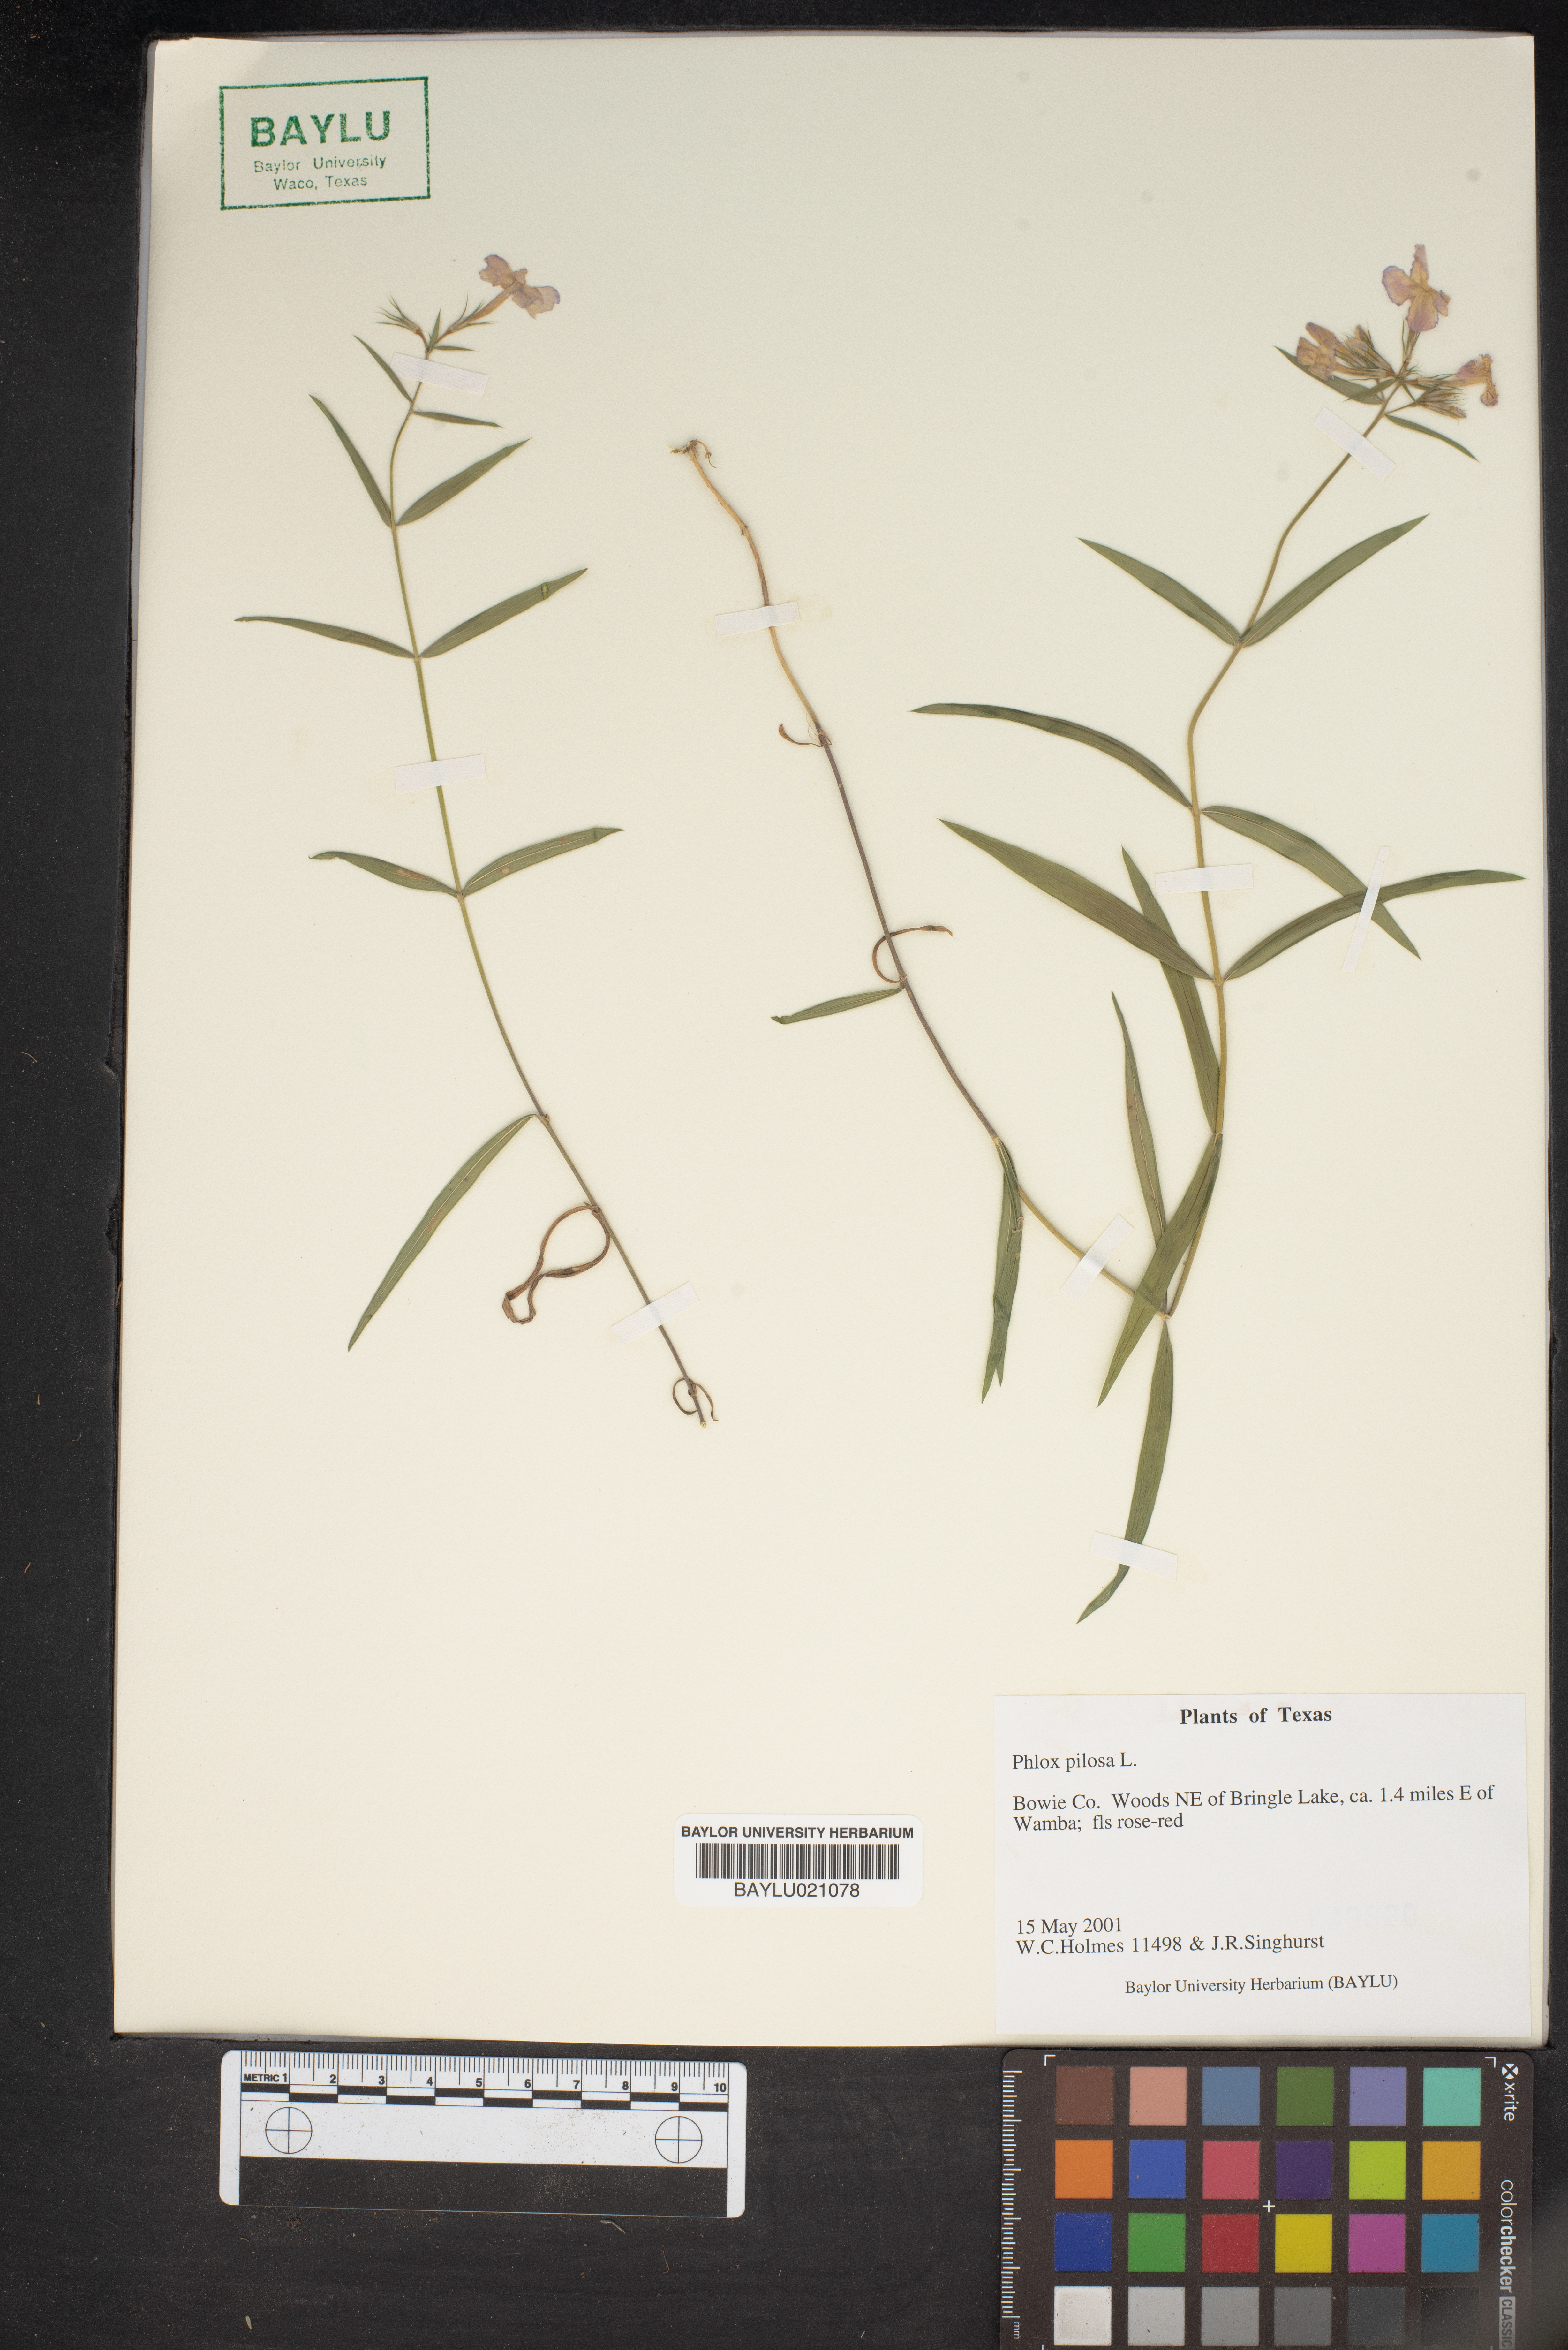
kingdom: Plantae
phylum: Tracheophyta
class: Magnoliopsida
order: Ericales
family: Polemoniaceae
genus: Phlox
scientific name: Phlox pilosa
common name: Prairie phlox
